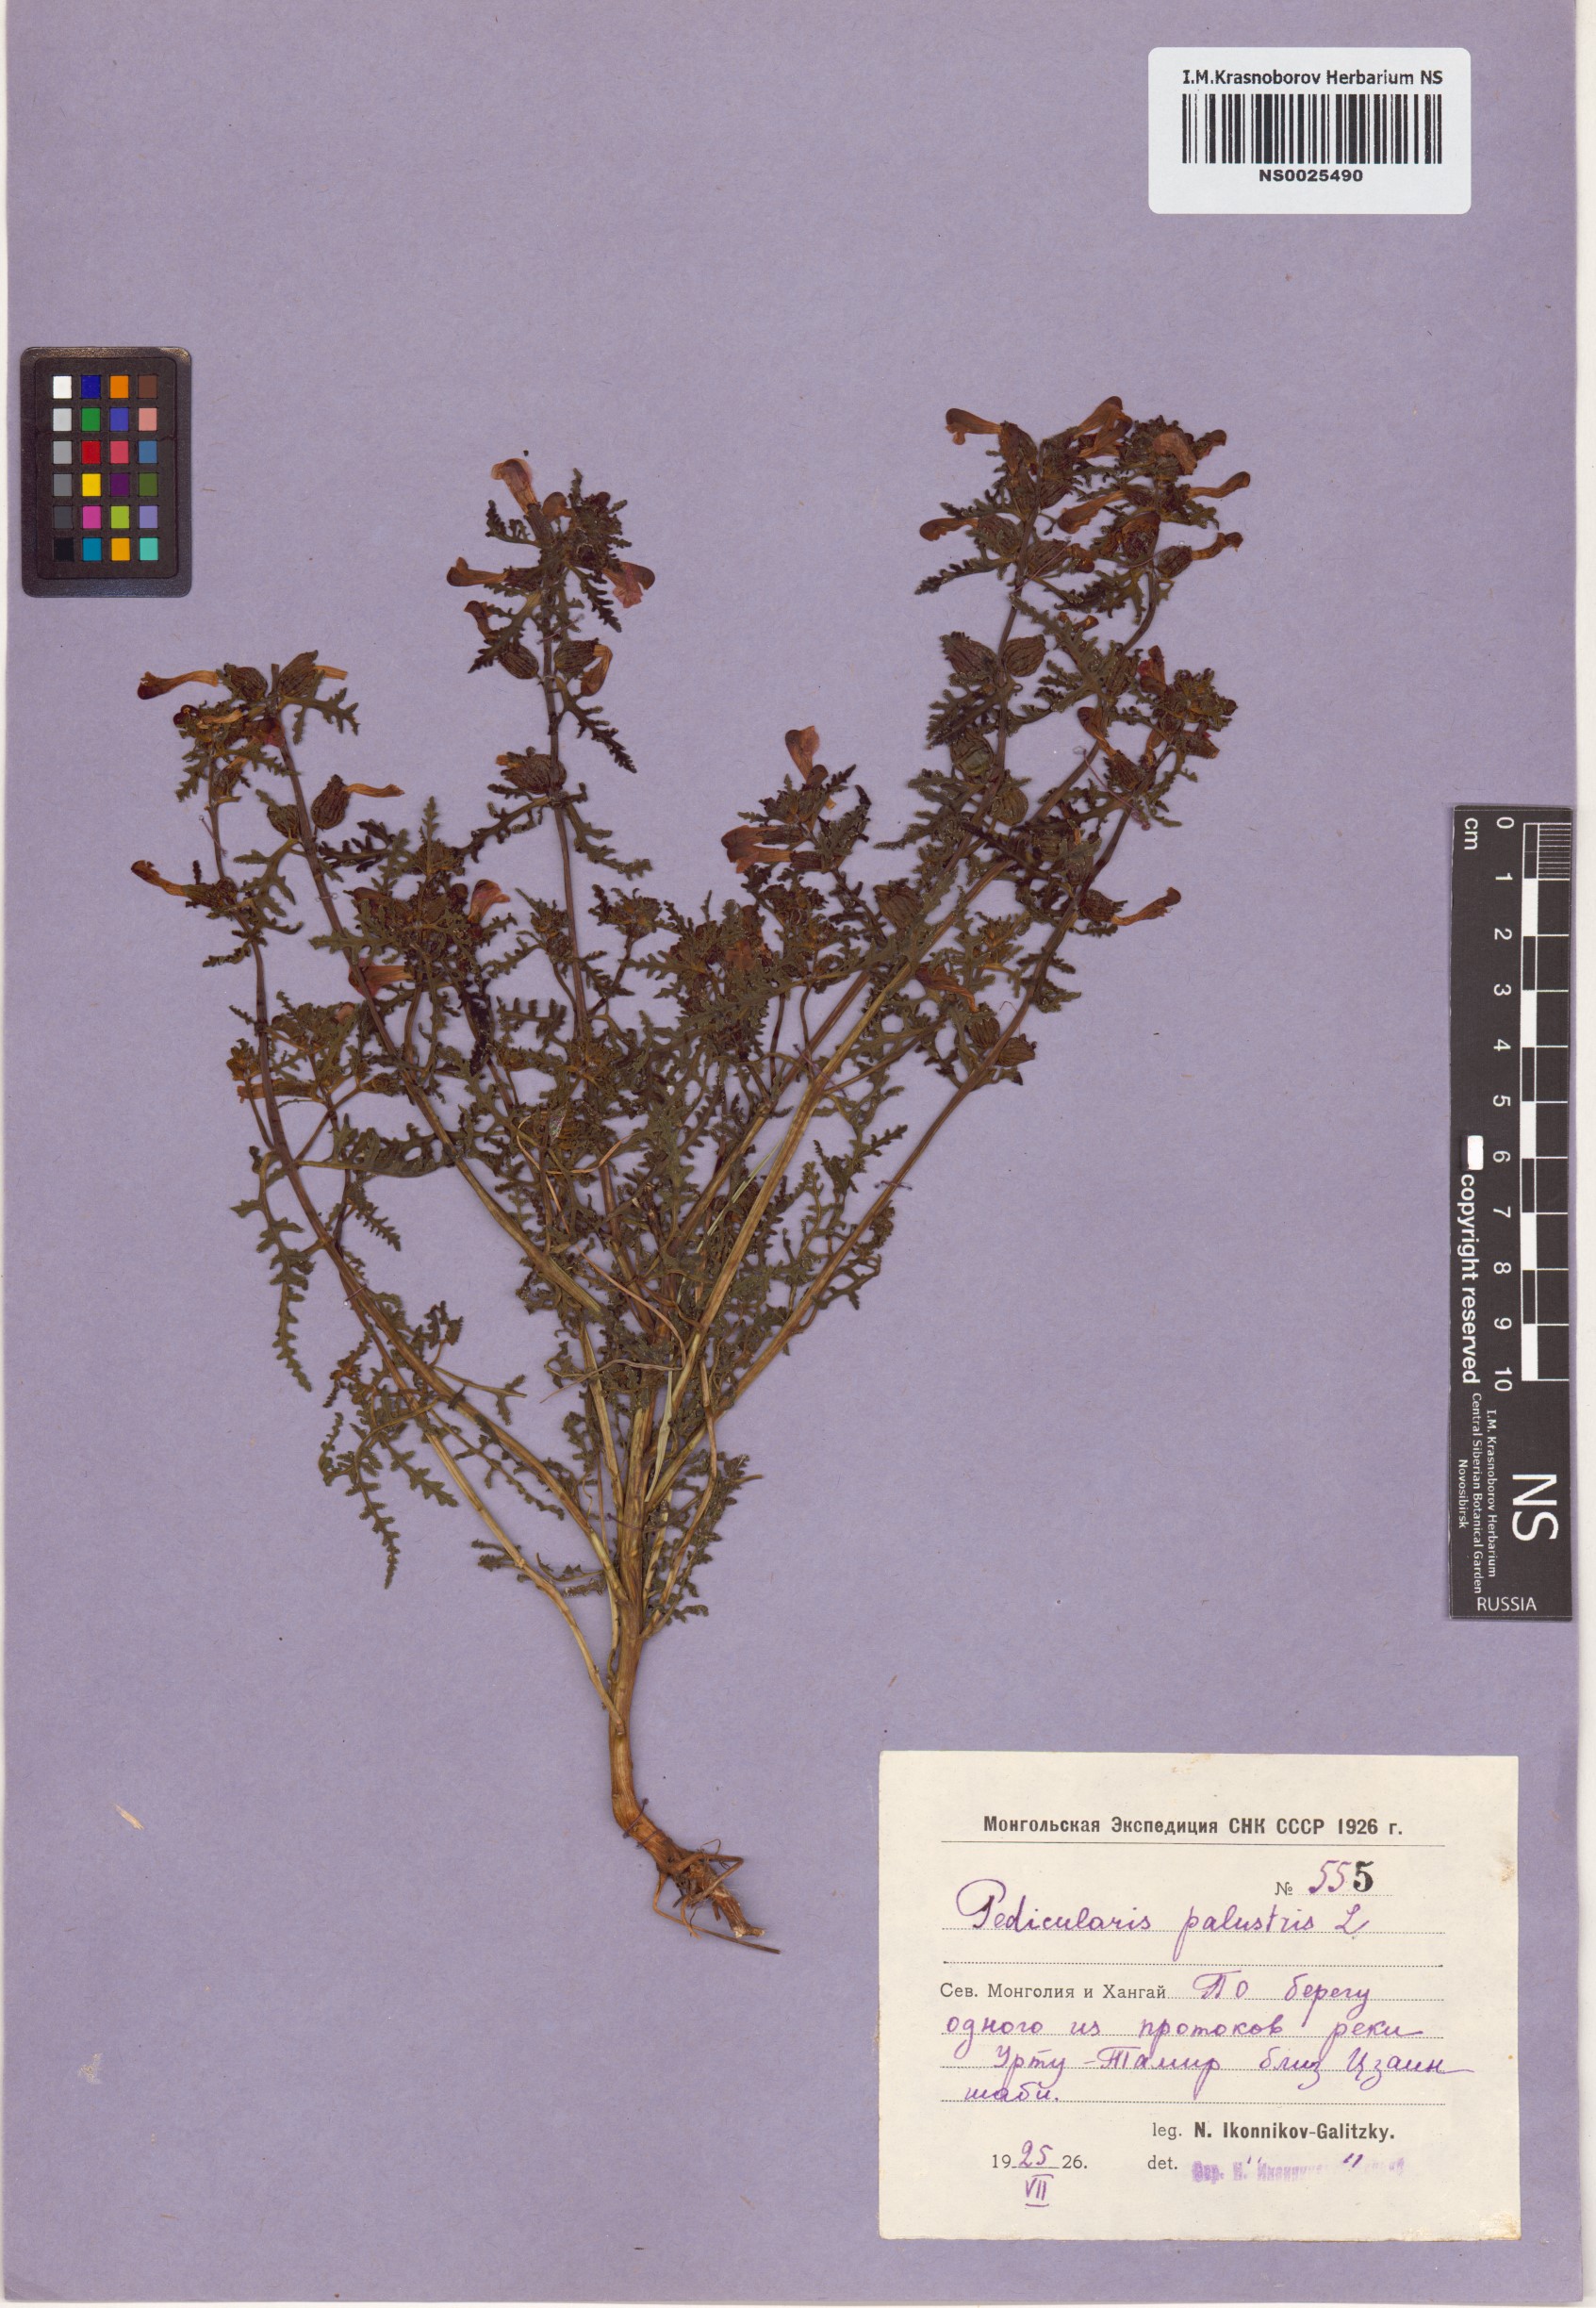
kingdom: Plantae
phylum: Tracheophyta
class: Magnoliopsida
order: Lamiales
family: Orobanchaceae
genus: Pedicularis
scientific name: Pedicularis palustris
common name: Marsh lousewort
